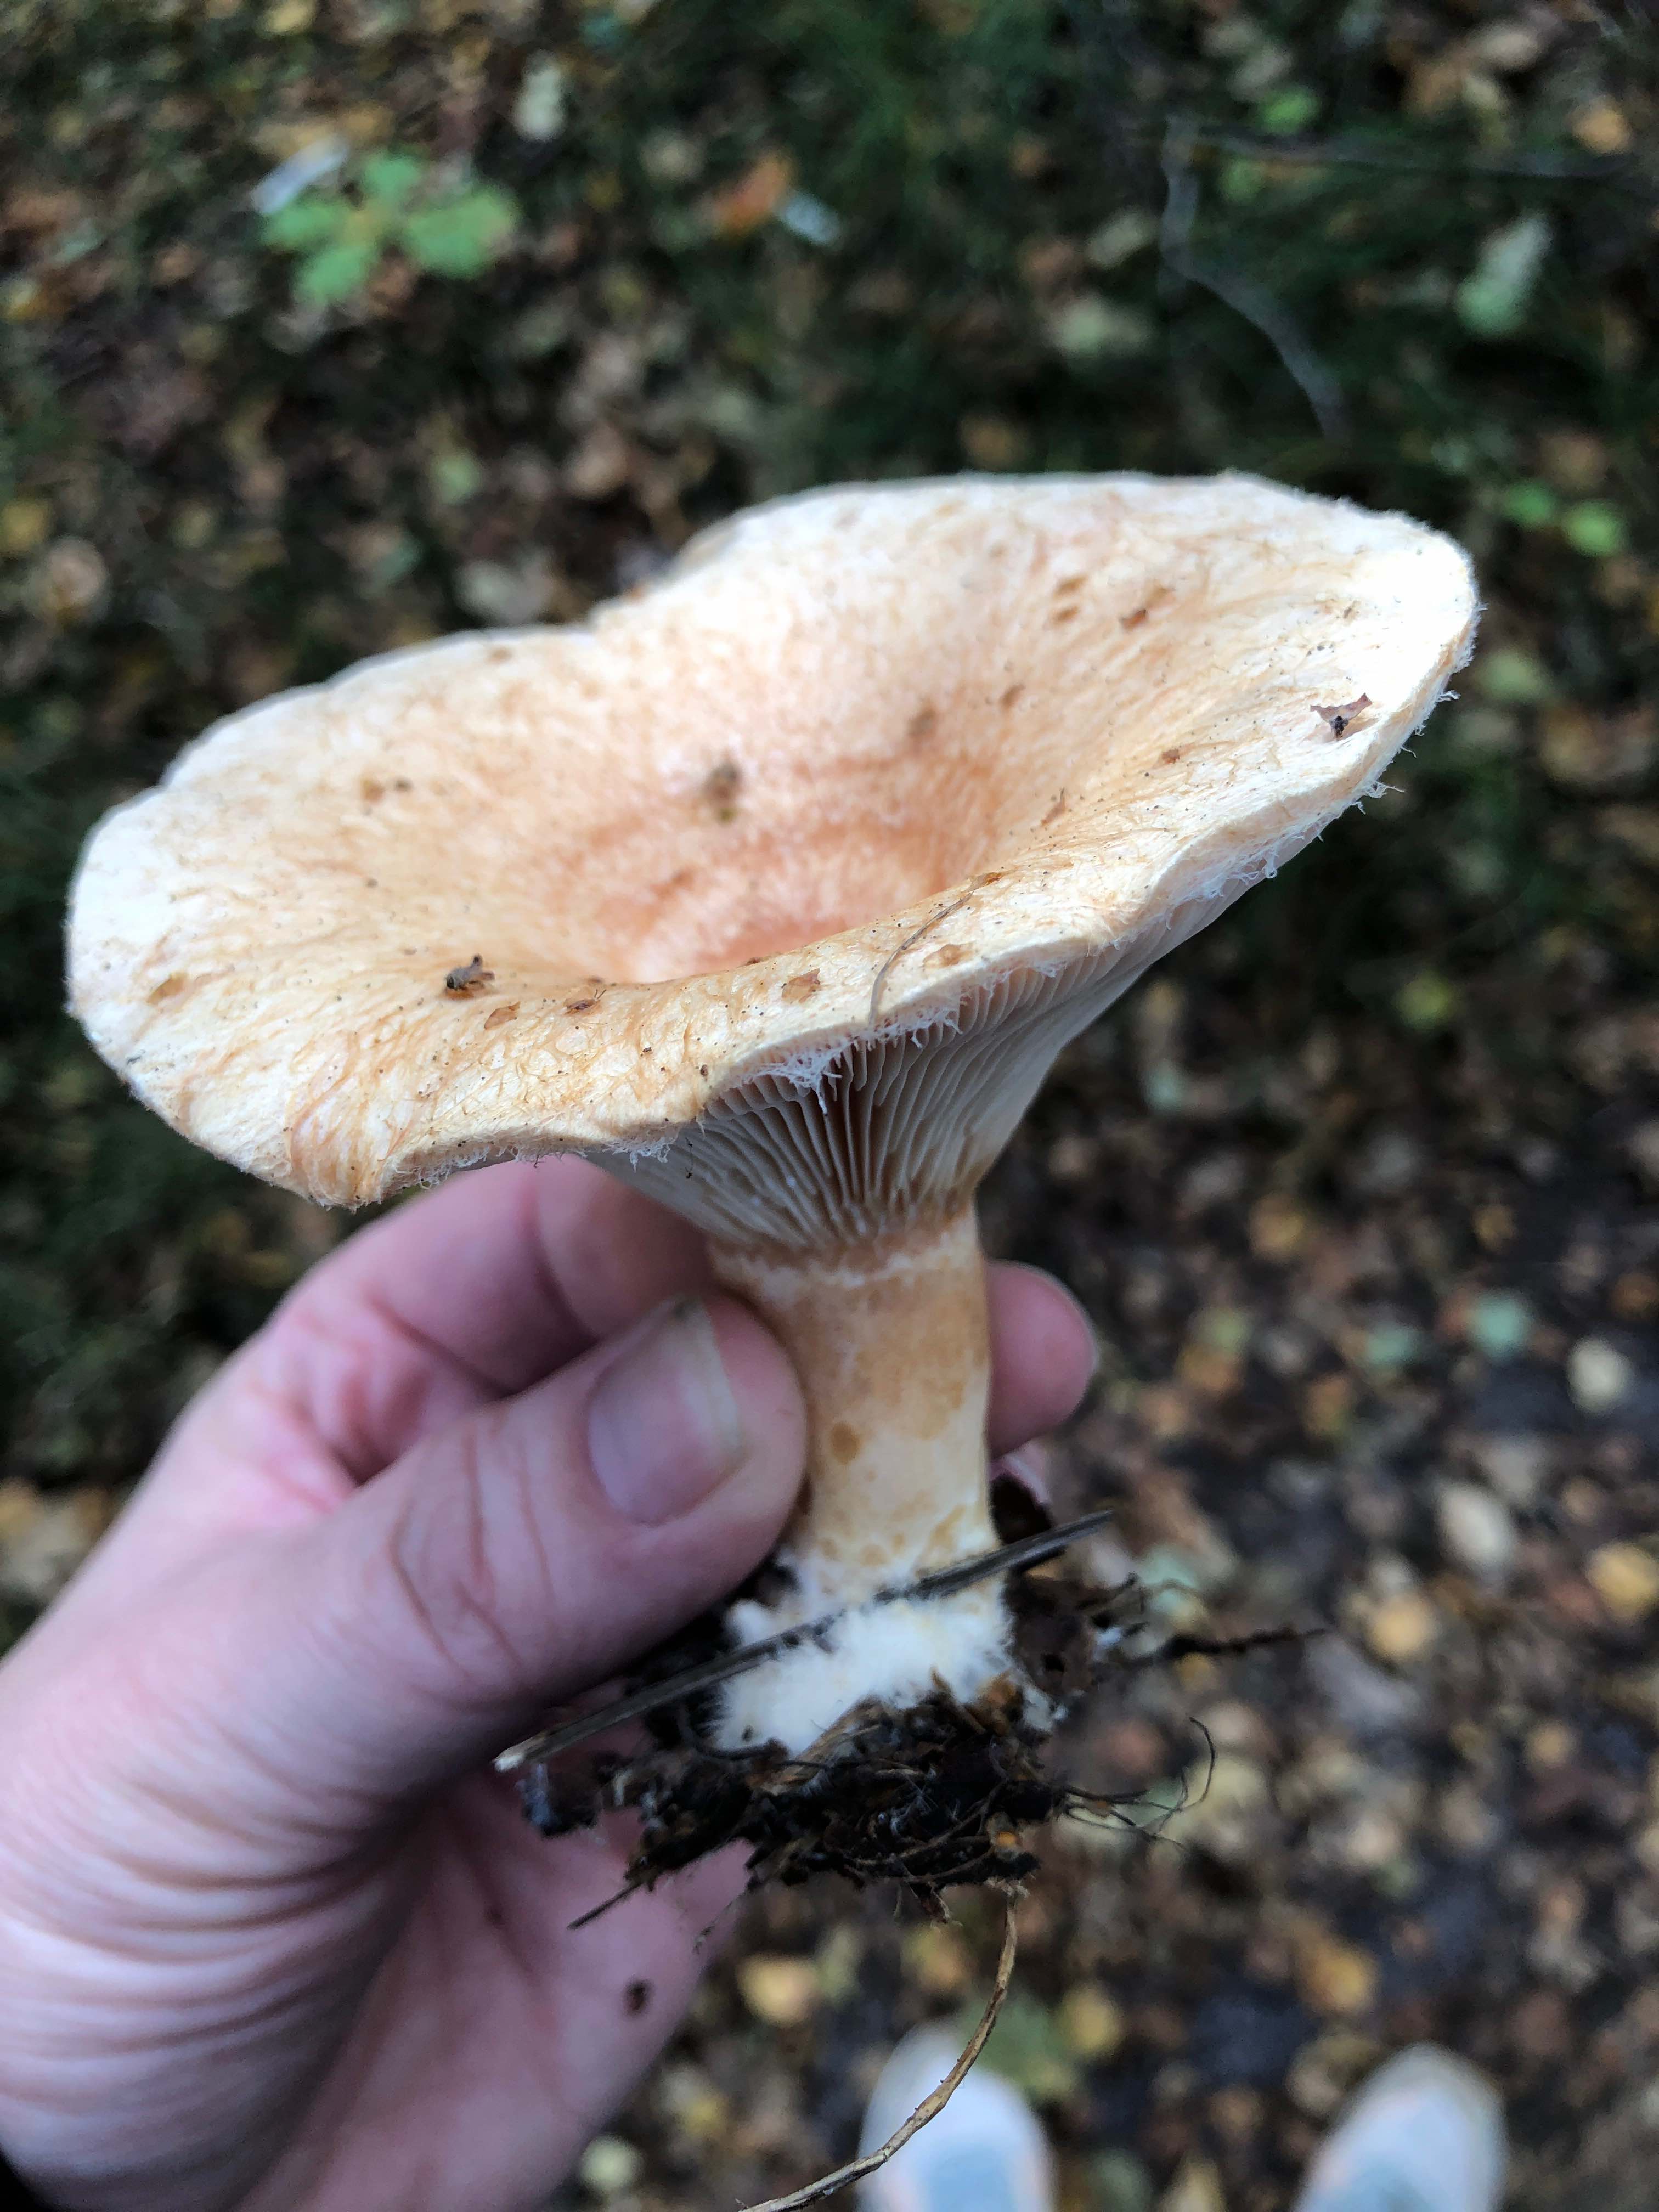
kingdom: Fungi
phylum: Basidiomycota
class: Agaricomycetes
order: Russulales
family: Russulaceae
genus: Lactarius
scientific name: Lactarius torminosus
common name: skægget mælkehat
